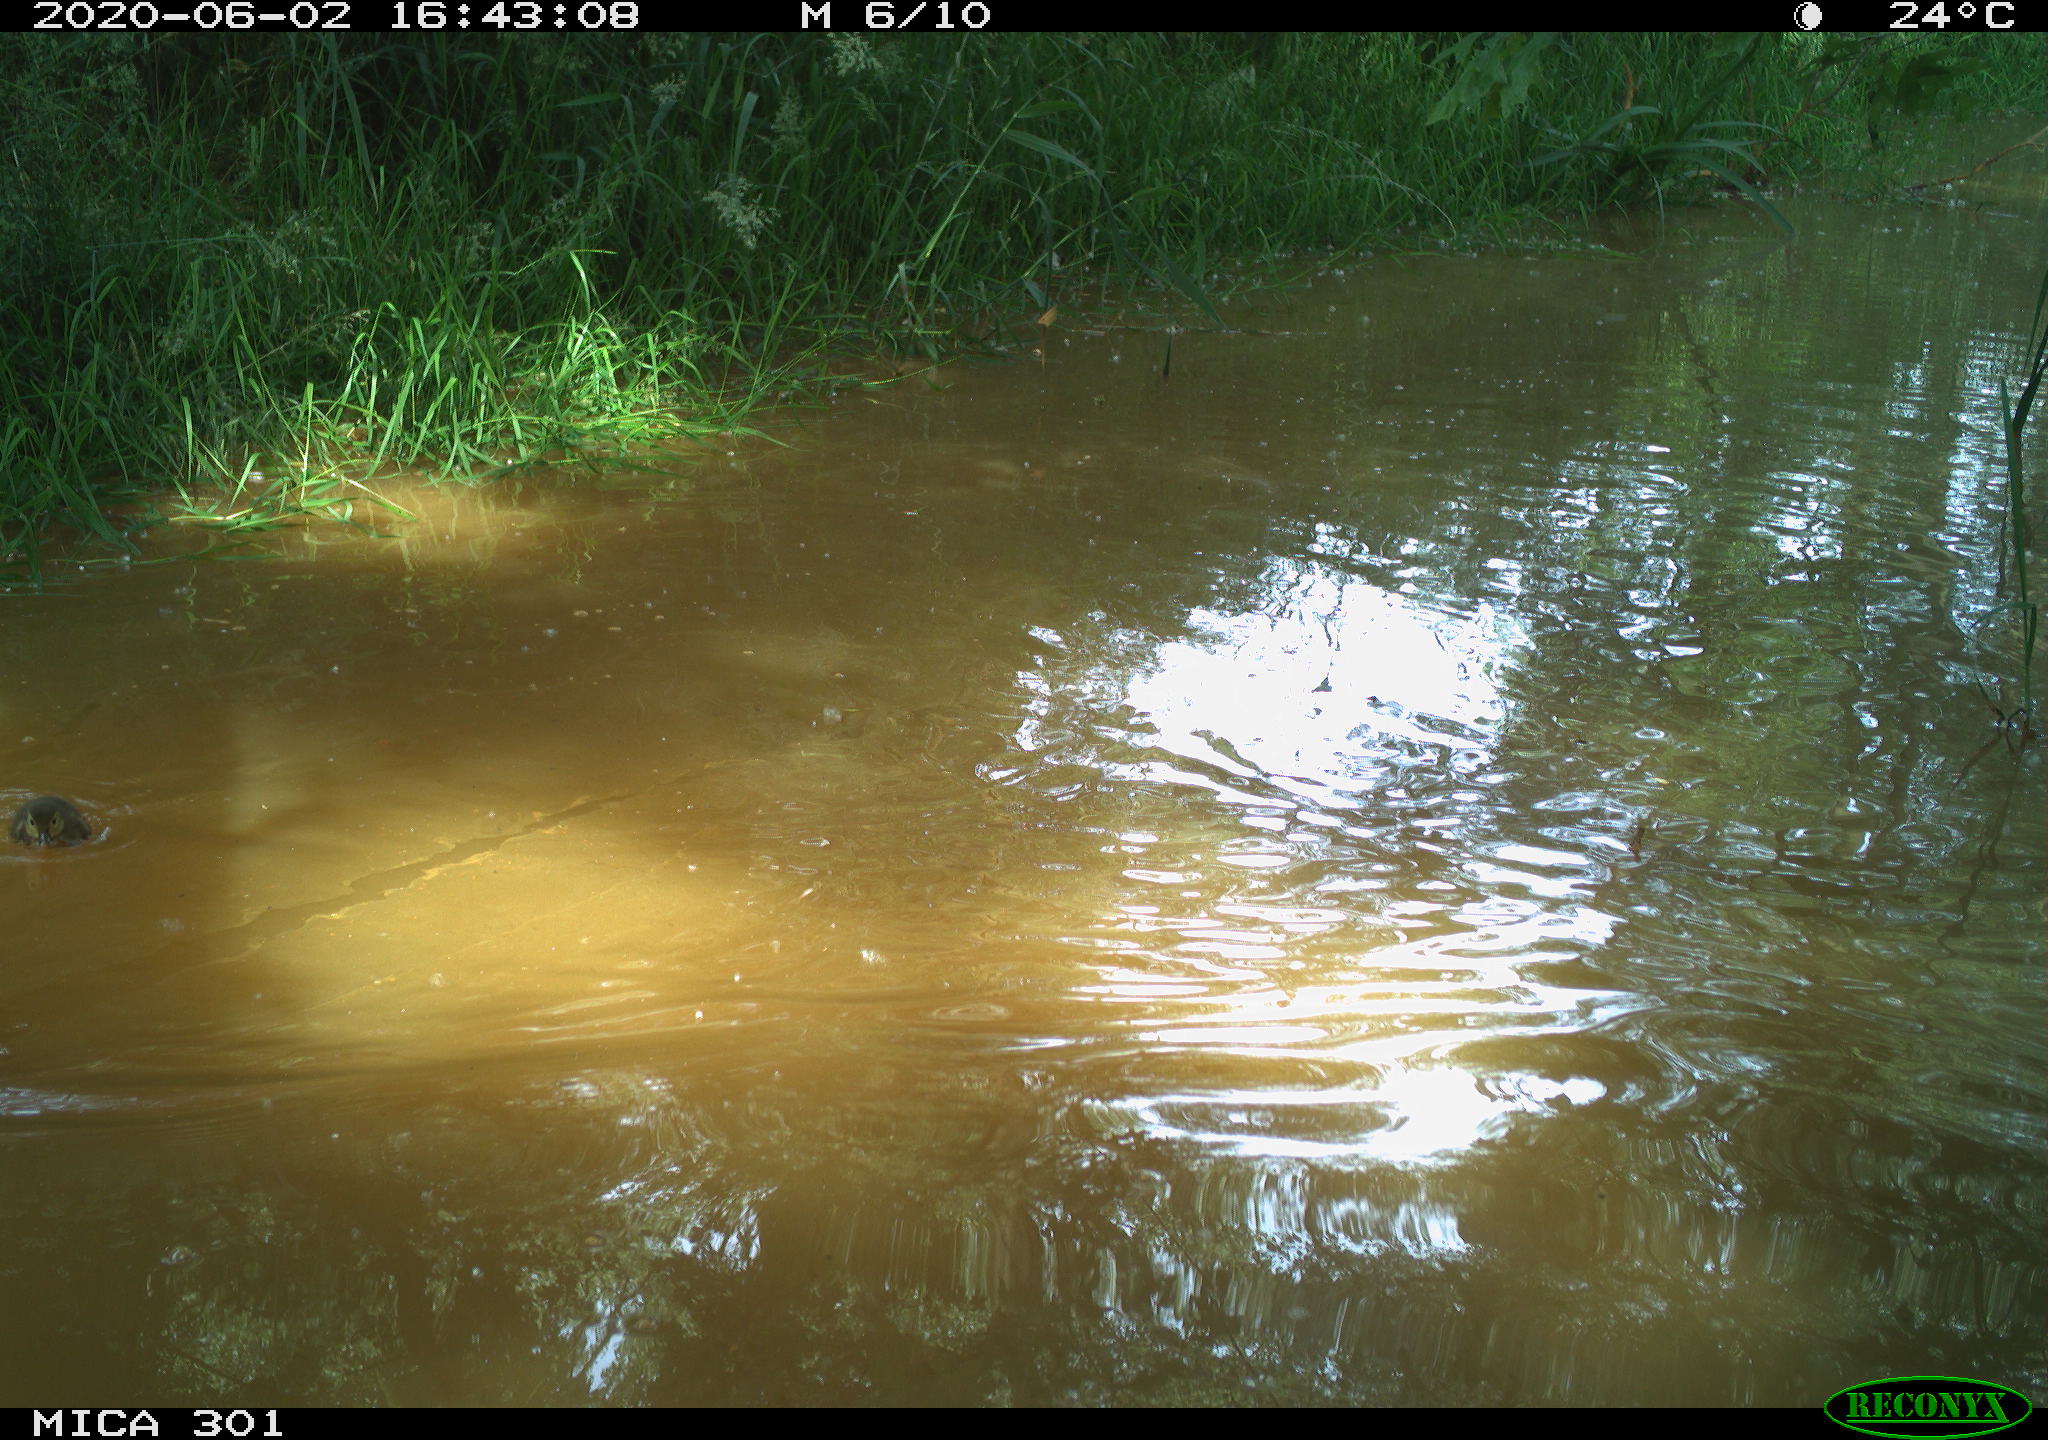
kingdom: Animalia
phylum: Chordata
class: Aves
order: Anseriformes
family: Anatidae
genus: Aix
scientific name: Aix galericulata
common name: Mandarin duck
